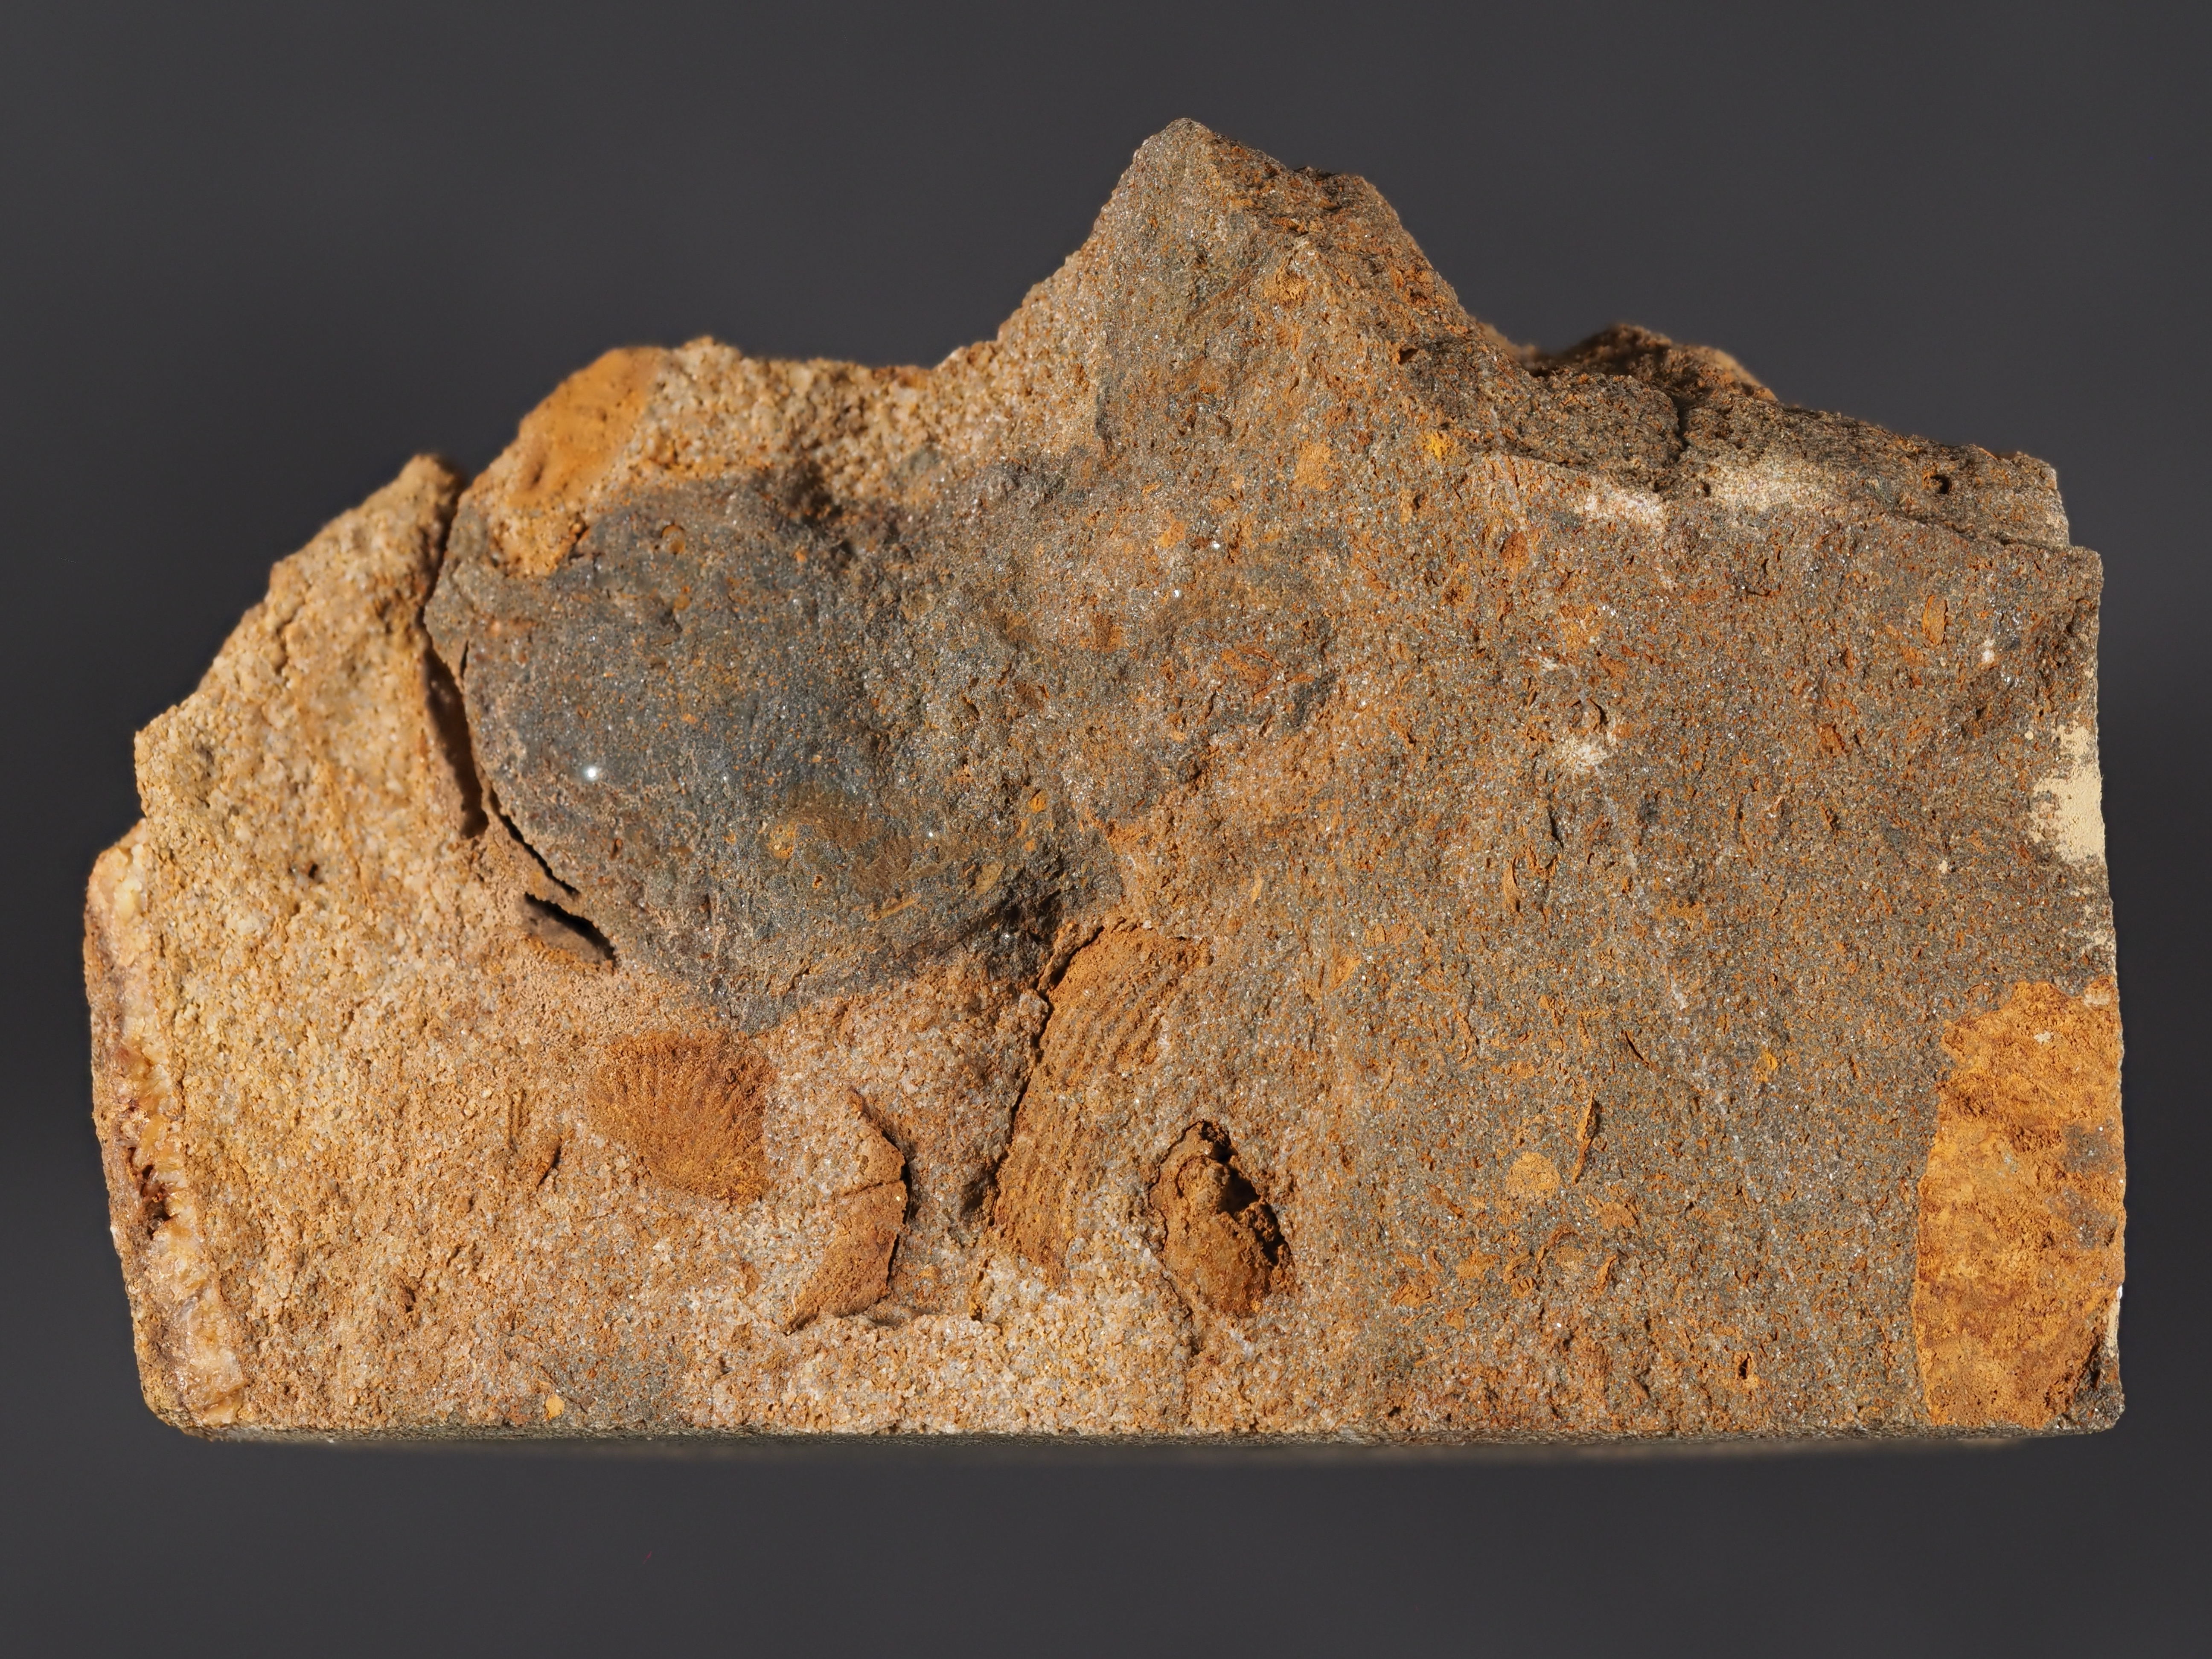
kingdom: Animalia
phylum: Brachiopoda
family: Leptostrophiidae
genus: Leptostrophiella
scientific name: Leptostrophiella
